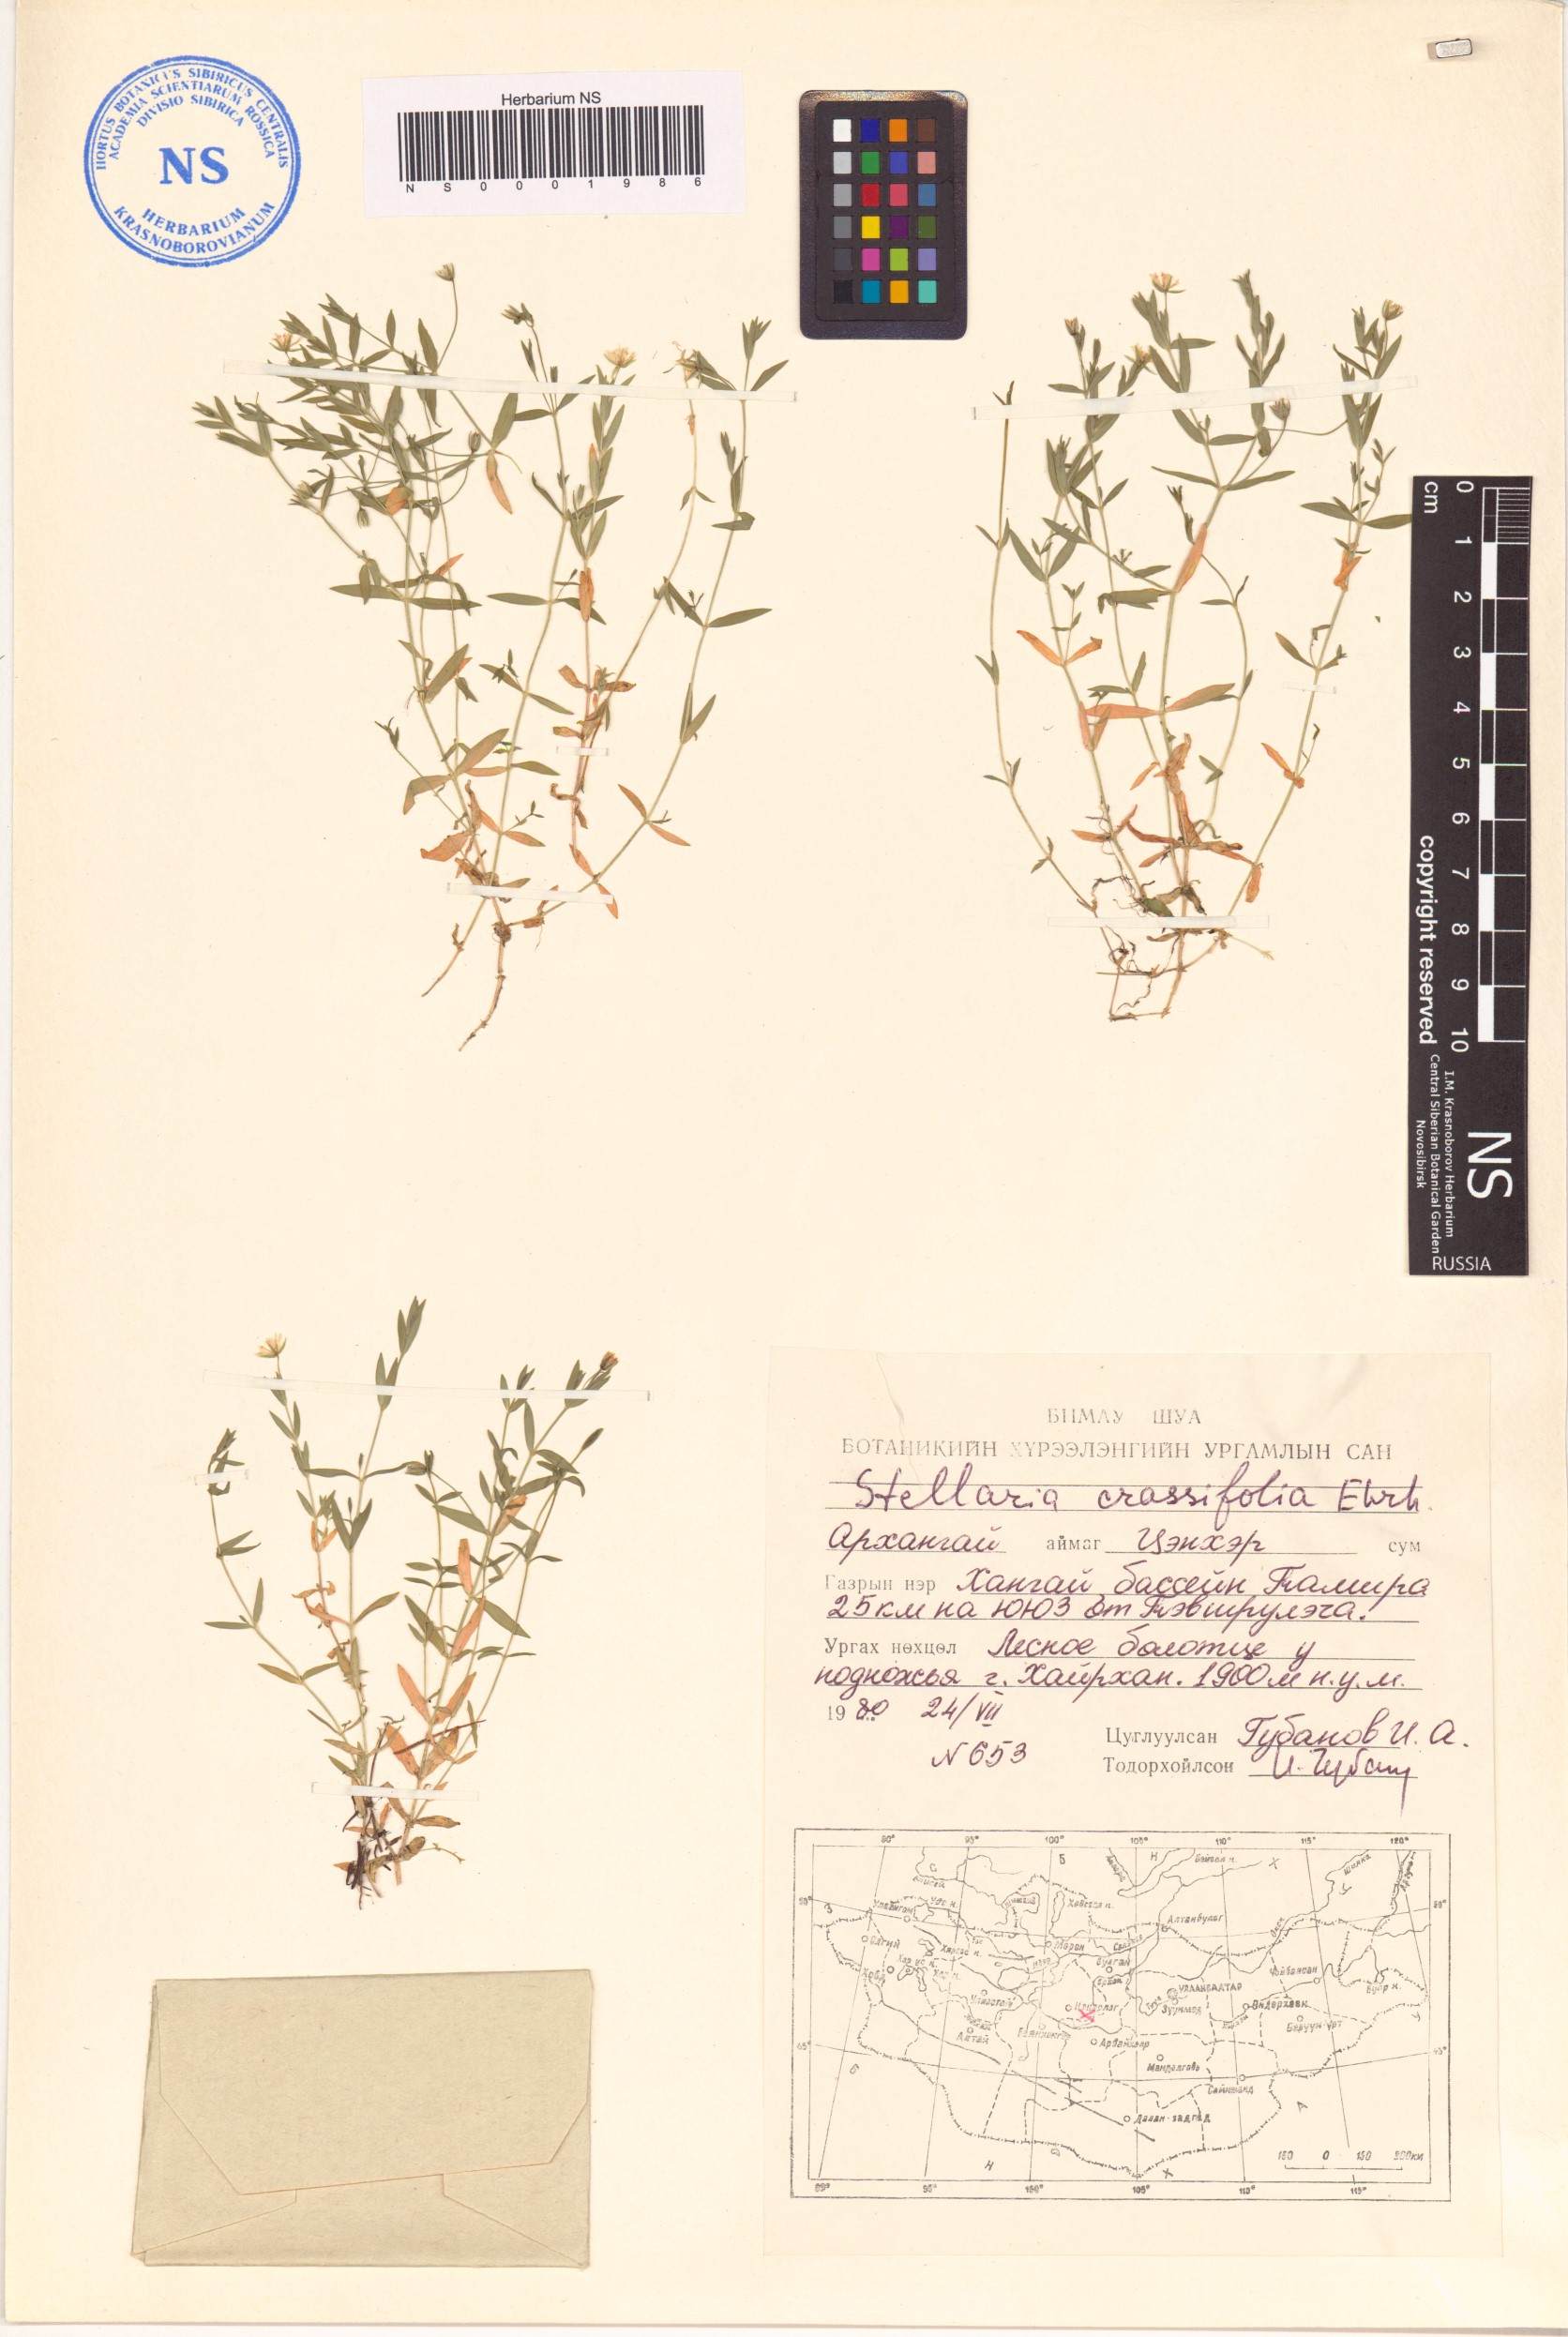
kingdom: Plantae
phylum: Tracheophyta
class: Magnoliopsida
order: Caryophyllales
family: Caryophyllaceae
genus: Stellaria
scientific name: Stellaria crassifolia
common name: Fleshy starwort
